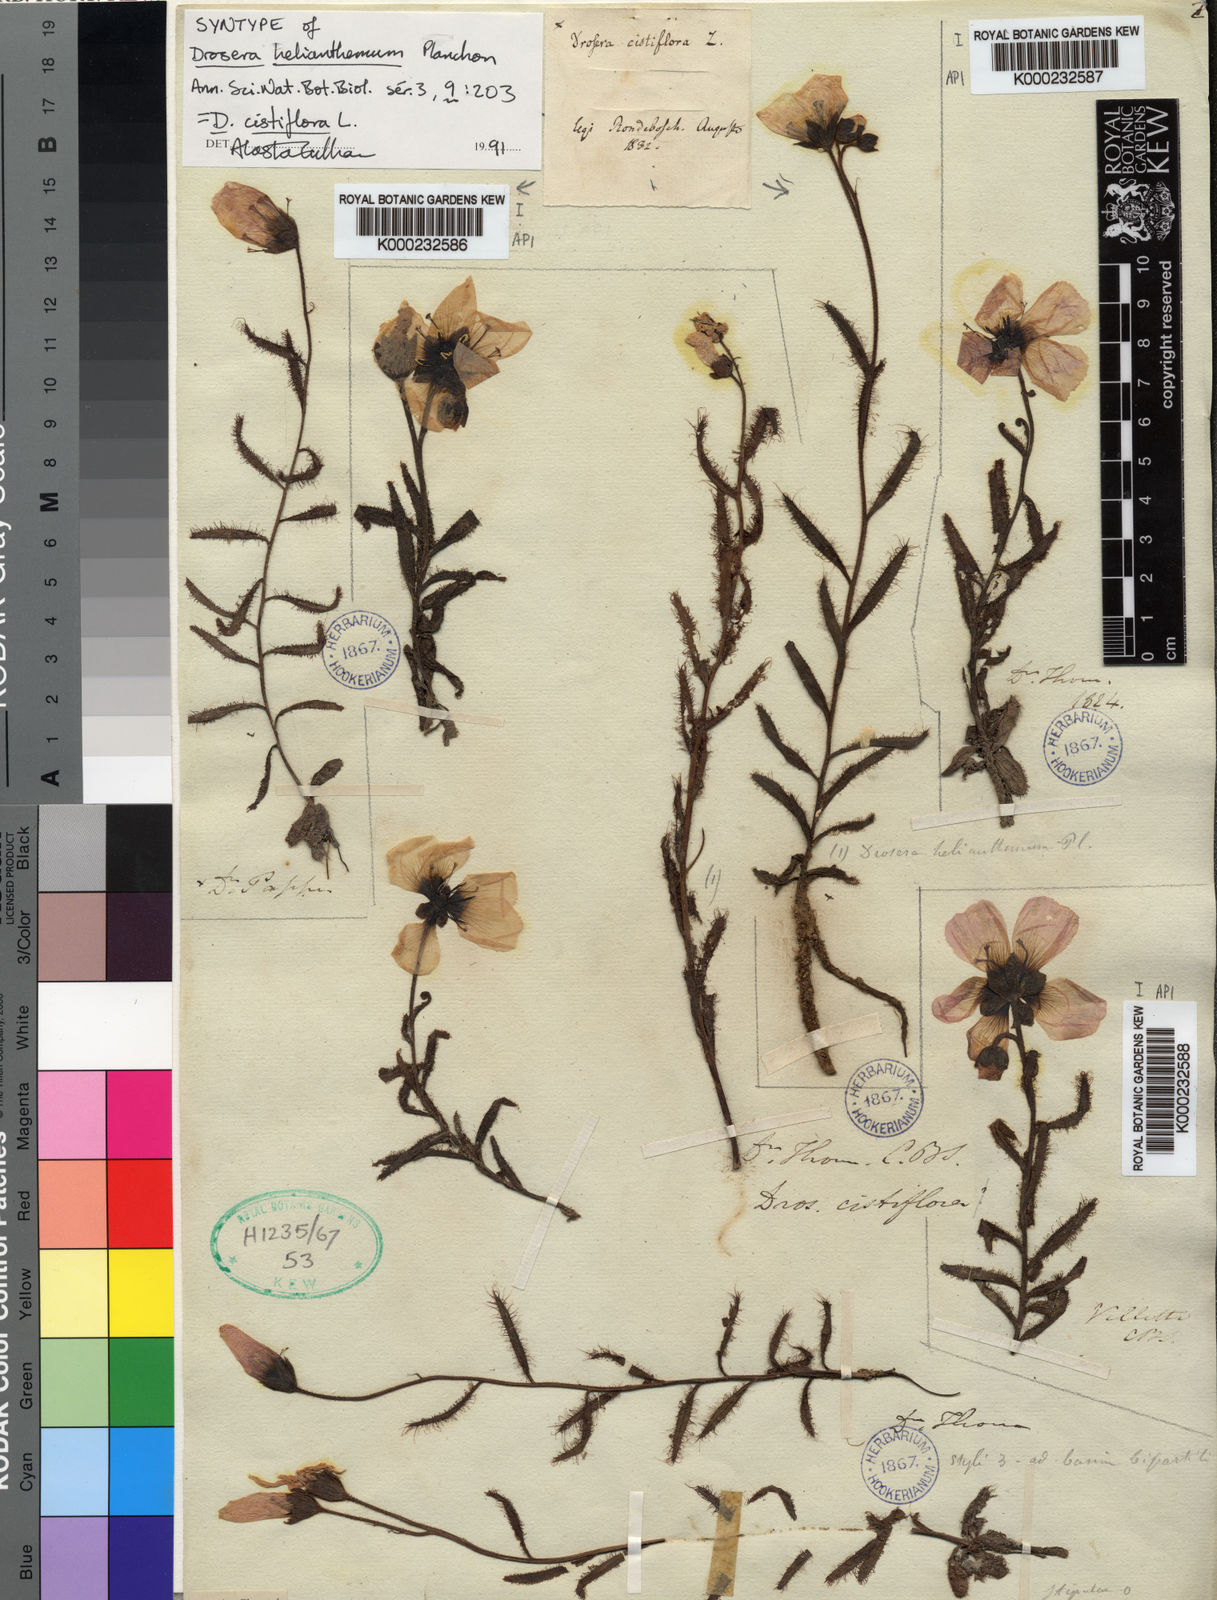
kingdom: Plantae
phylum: Tracheophyta
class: Magnoliopsida
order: Caryophyllales
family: Droseraceae
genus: Drosera
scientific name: Drosera cistiflora
